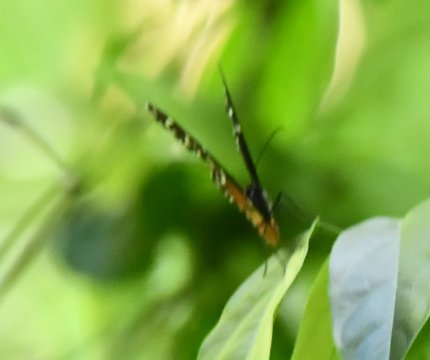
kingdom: Animalia
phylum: Arthropoda
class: Insecta
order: Lepidoptera
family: Nymphalidae
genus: Heliconius
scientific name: Heliconius
